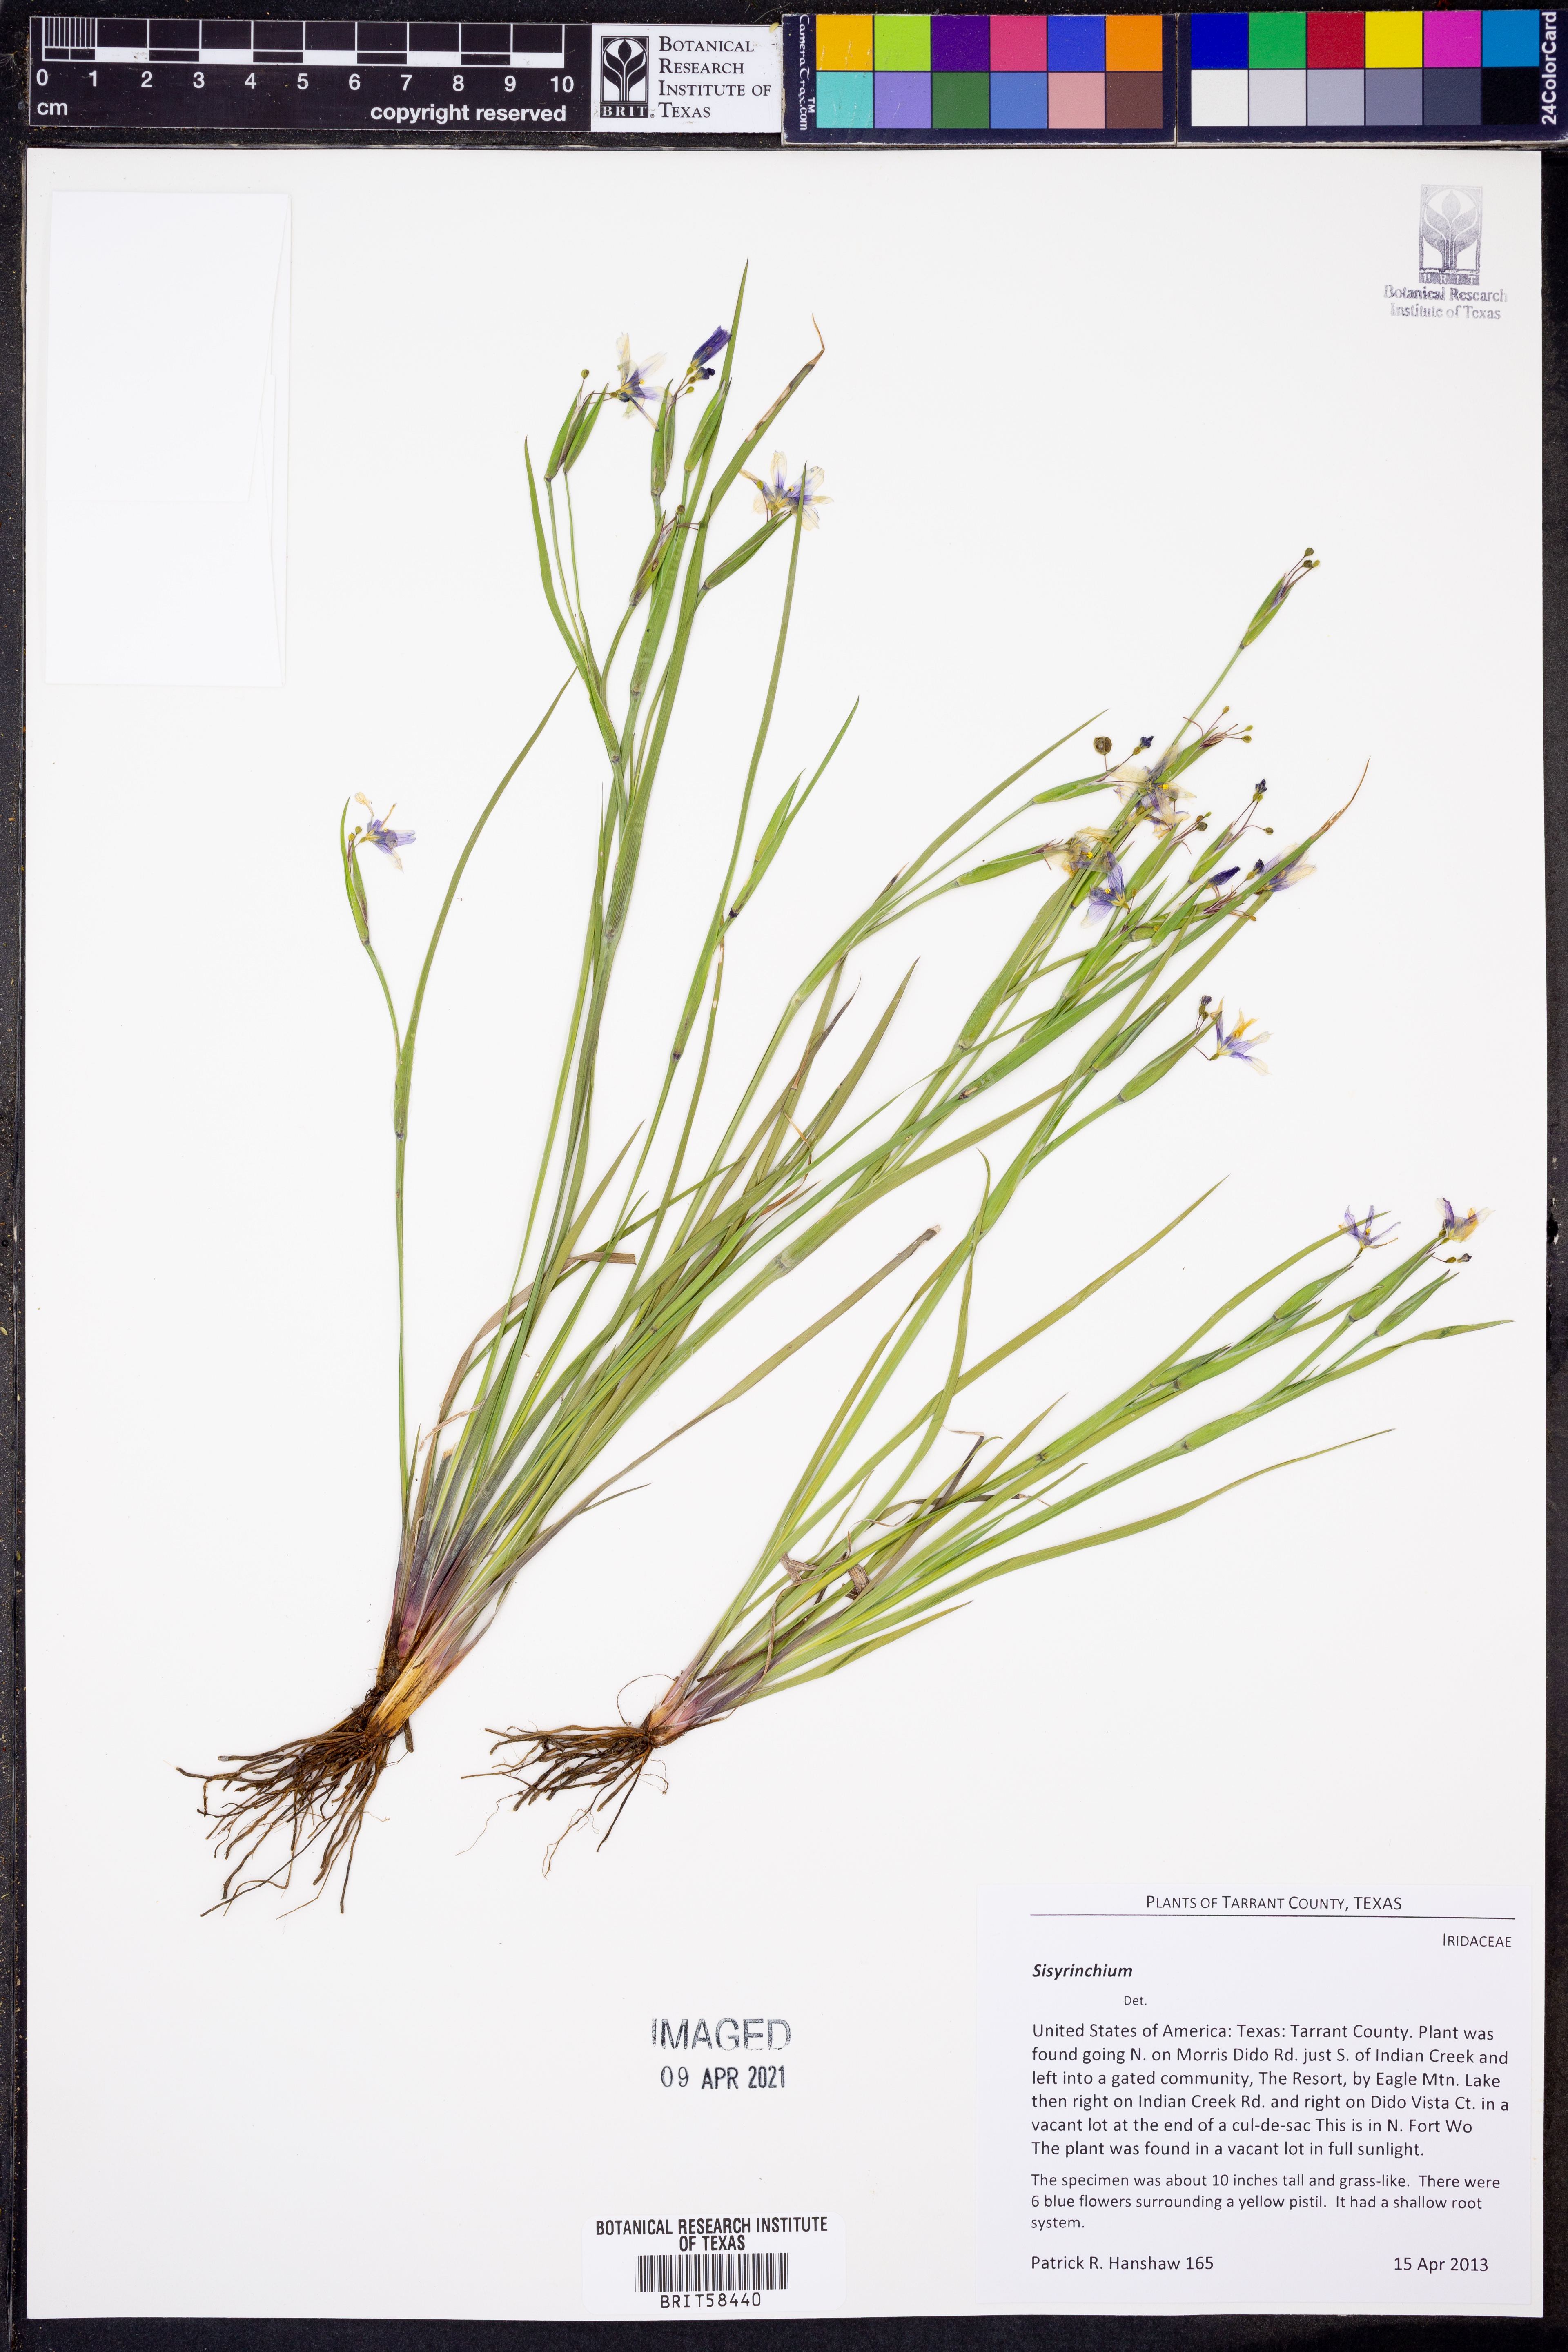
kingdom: Plantae
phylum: Tracheophyta
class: Liliopsida
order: Asparagales
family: Iridaceae
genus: Sisyrinchium
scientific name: Sisyrinchium
